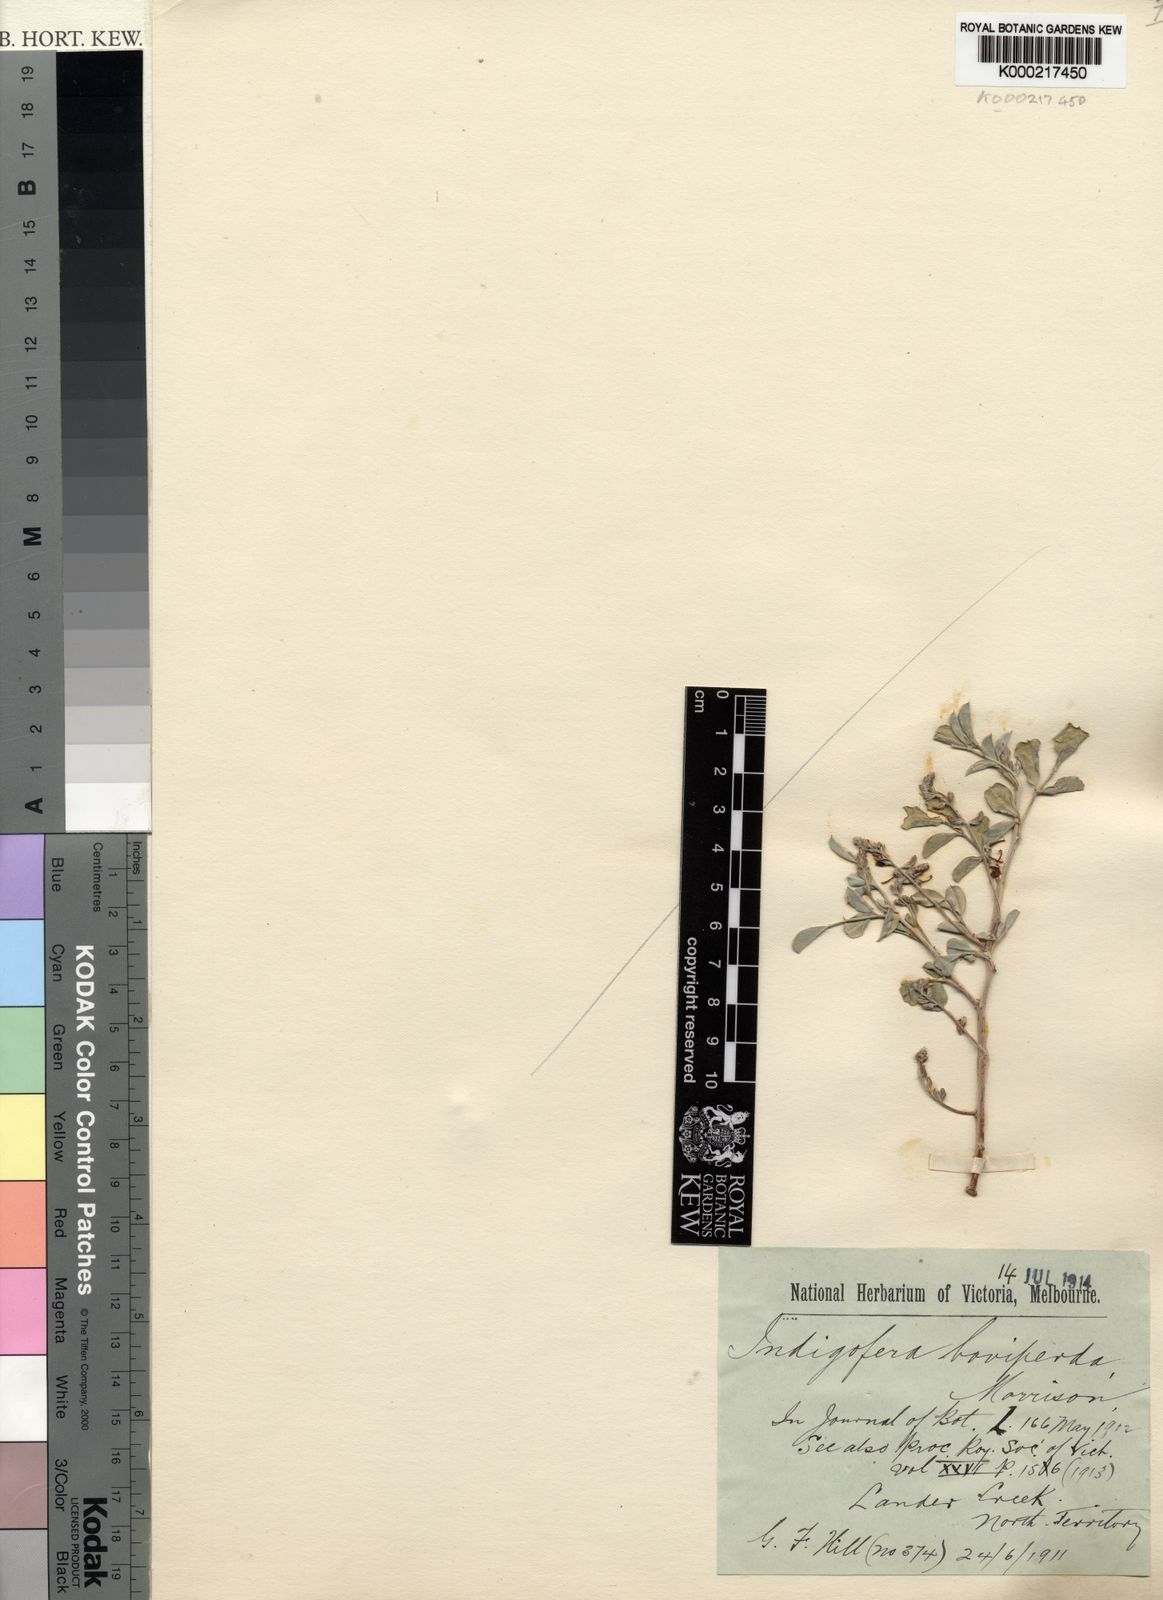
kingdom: Plantae
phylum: Tracheophyta
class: Magnoliopsida
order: Fabales
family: Fabaceae
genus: Indigofera
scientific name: Indigofera boviperda
